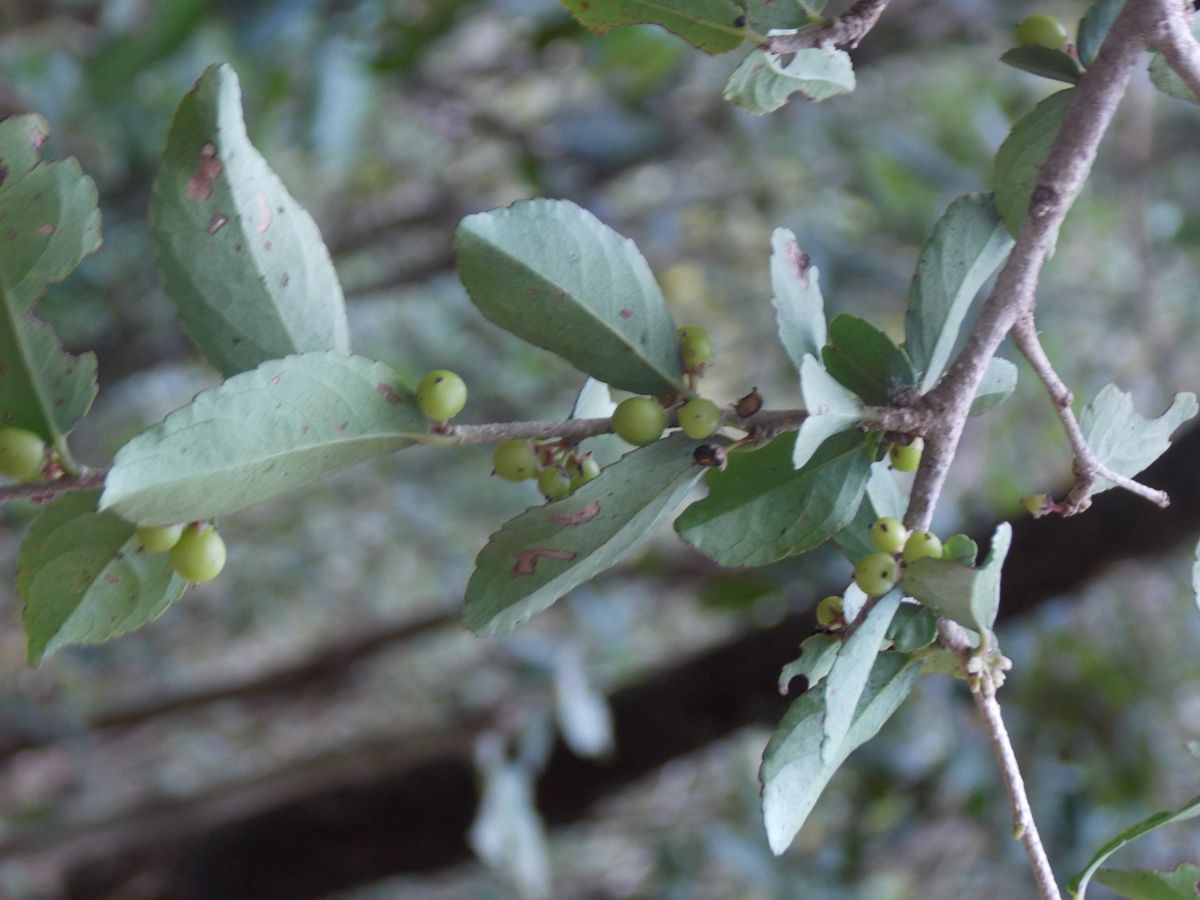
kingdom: Plantae
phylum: Tracheophyta
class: Magnoliopsida
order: Malpighiales
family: Salicaceae
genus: Xylosma
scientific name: Xylosma flexuosa
